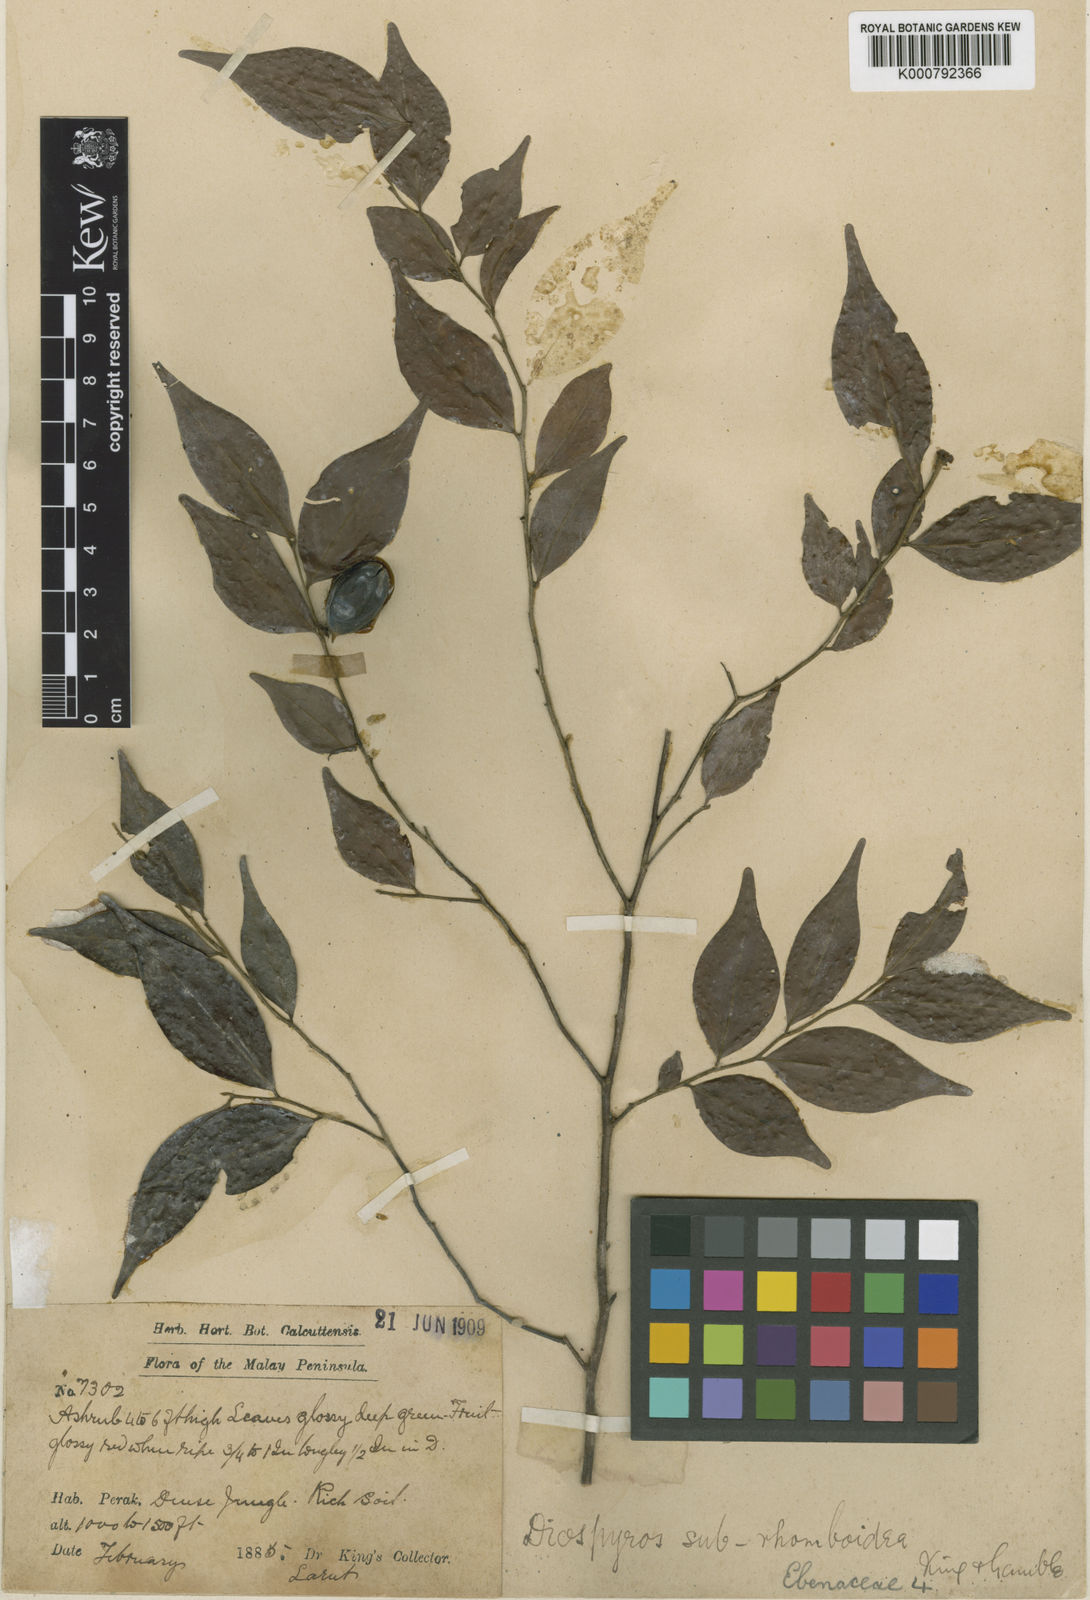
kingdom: Plantae
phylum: Tracheophyta
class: Magnoliopsida
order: Ericales
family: Ebenaceae
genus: Diospyros
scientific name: Diospyros subrhomboidea
